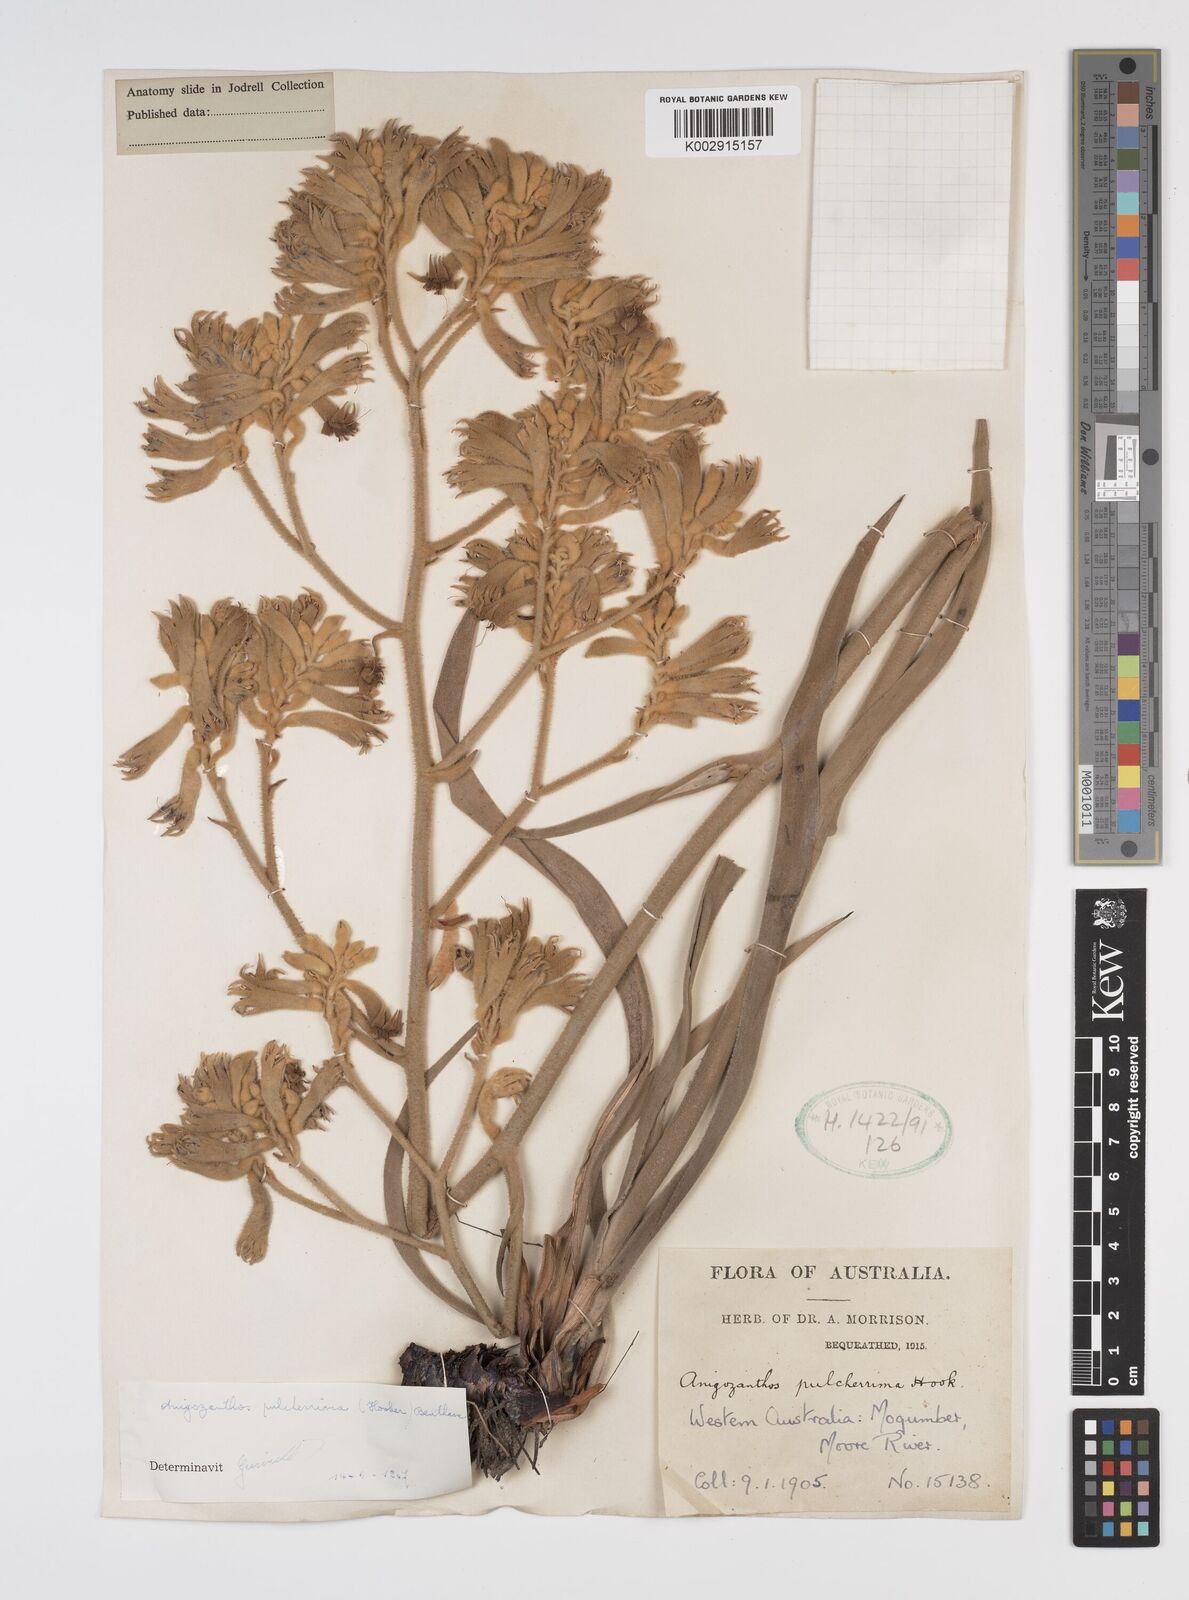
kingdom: Plantae
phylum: Tracheophyta
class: Liliopsida
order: Commelinales
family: Haemodoraceae
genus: Anigozanthos
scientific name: Anigozanthos pulcherrimus
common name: Yellow kangaroo-paw
